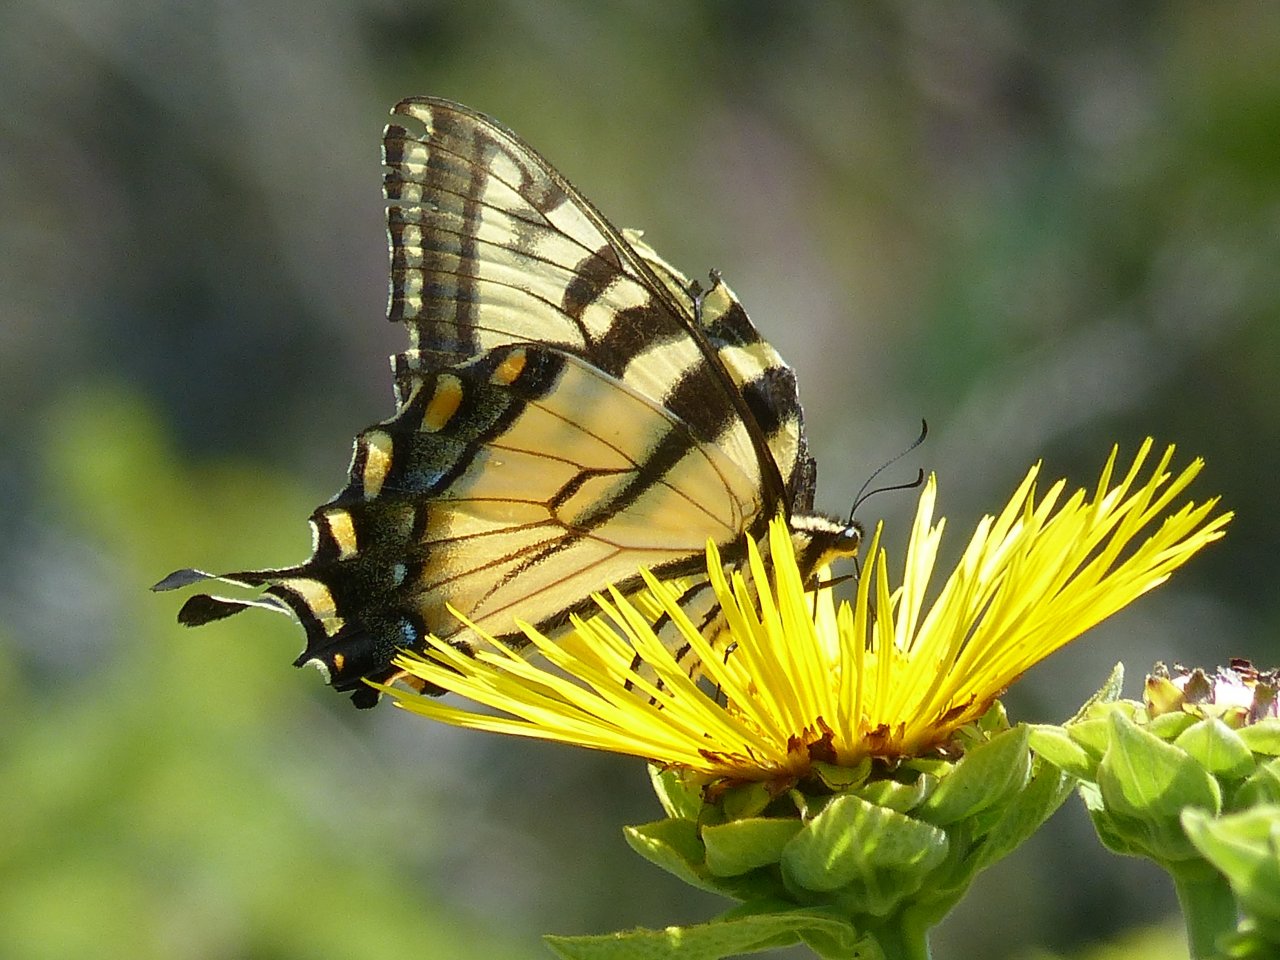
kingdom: Animalia
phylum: Arthropoda
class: Insecta
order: Lepidoptera
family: Papilionidae
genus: Pterourus
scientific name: Pterourus glaucus
